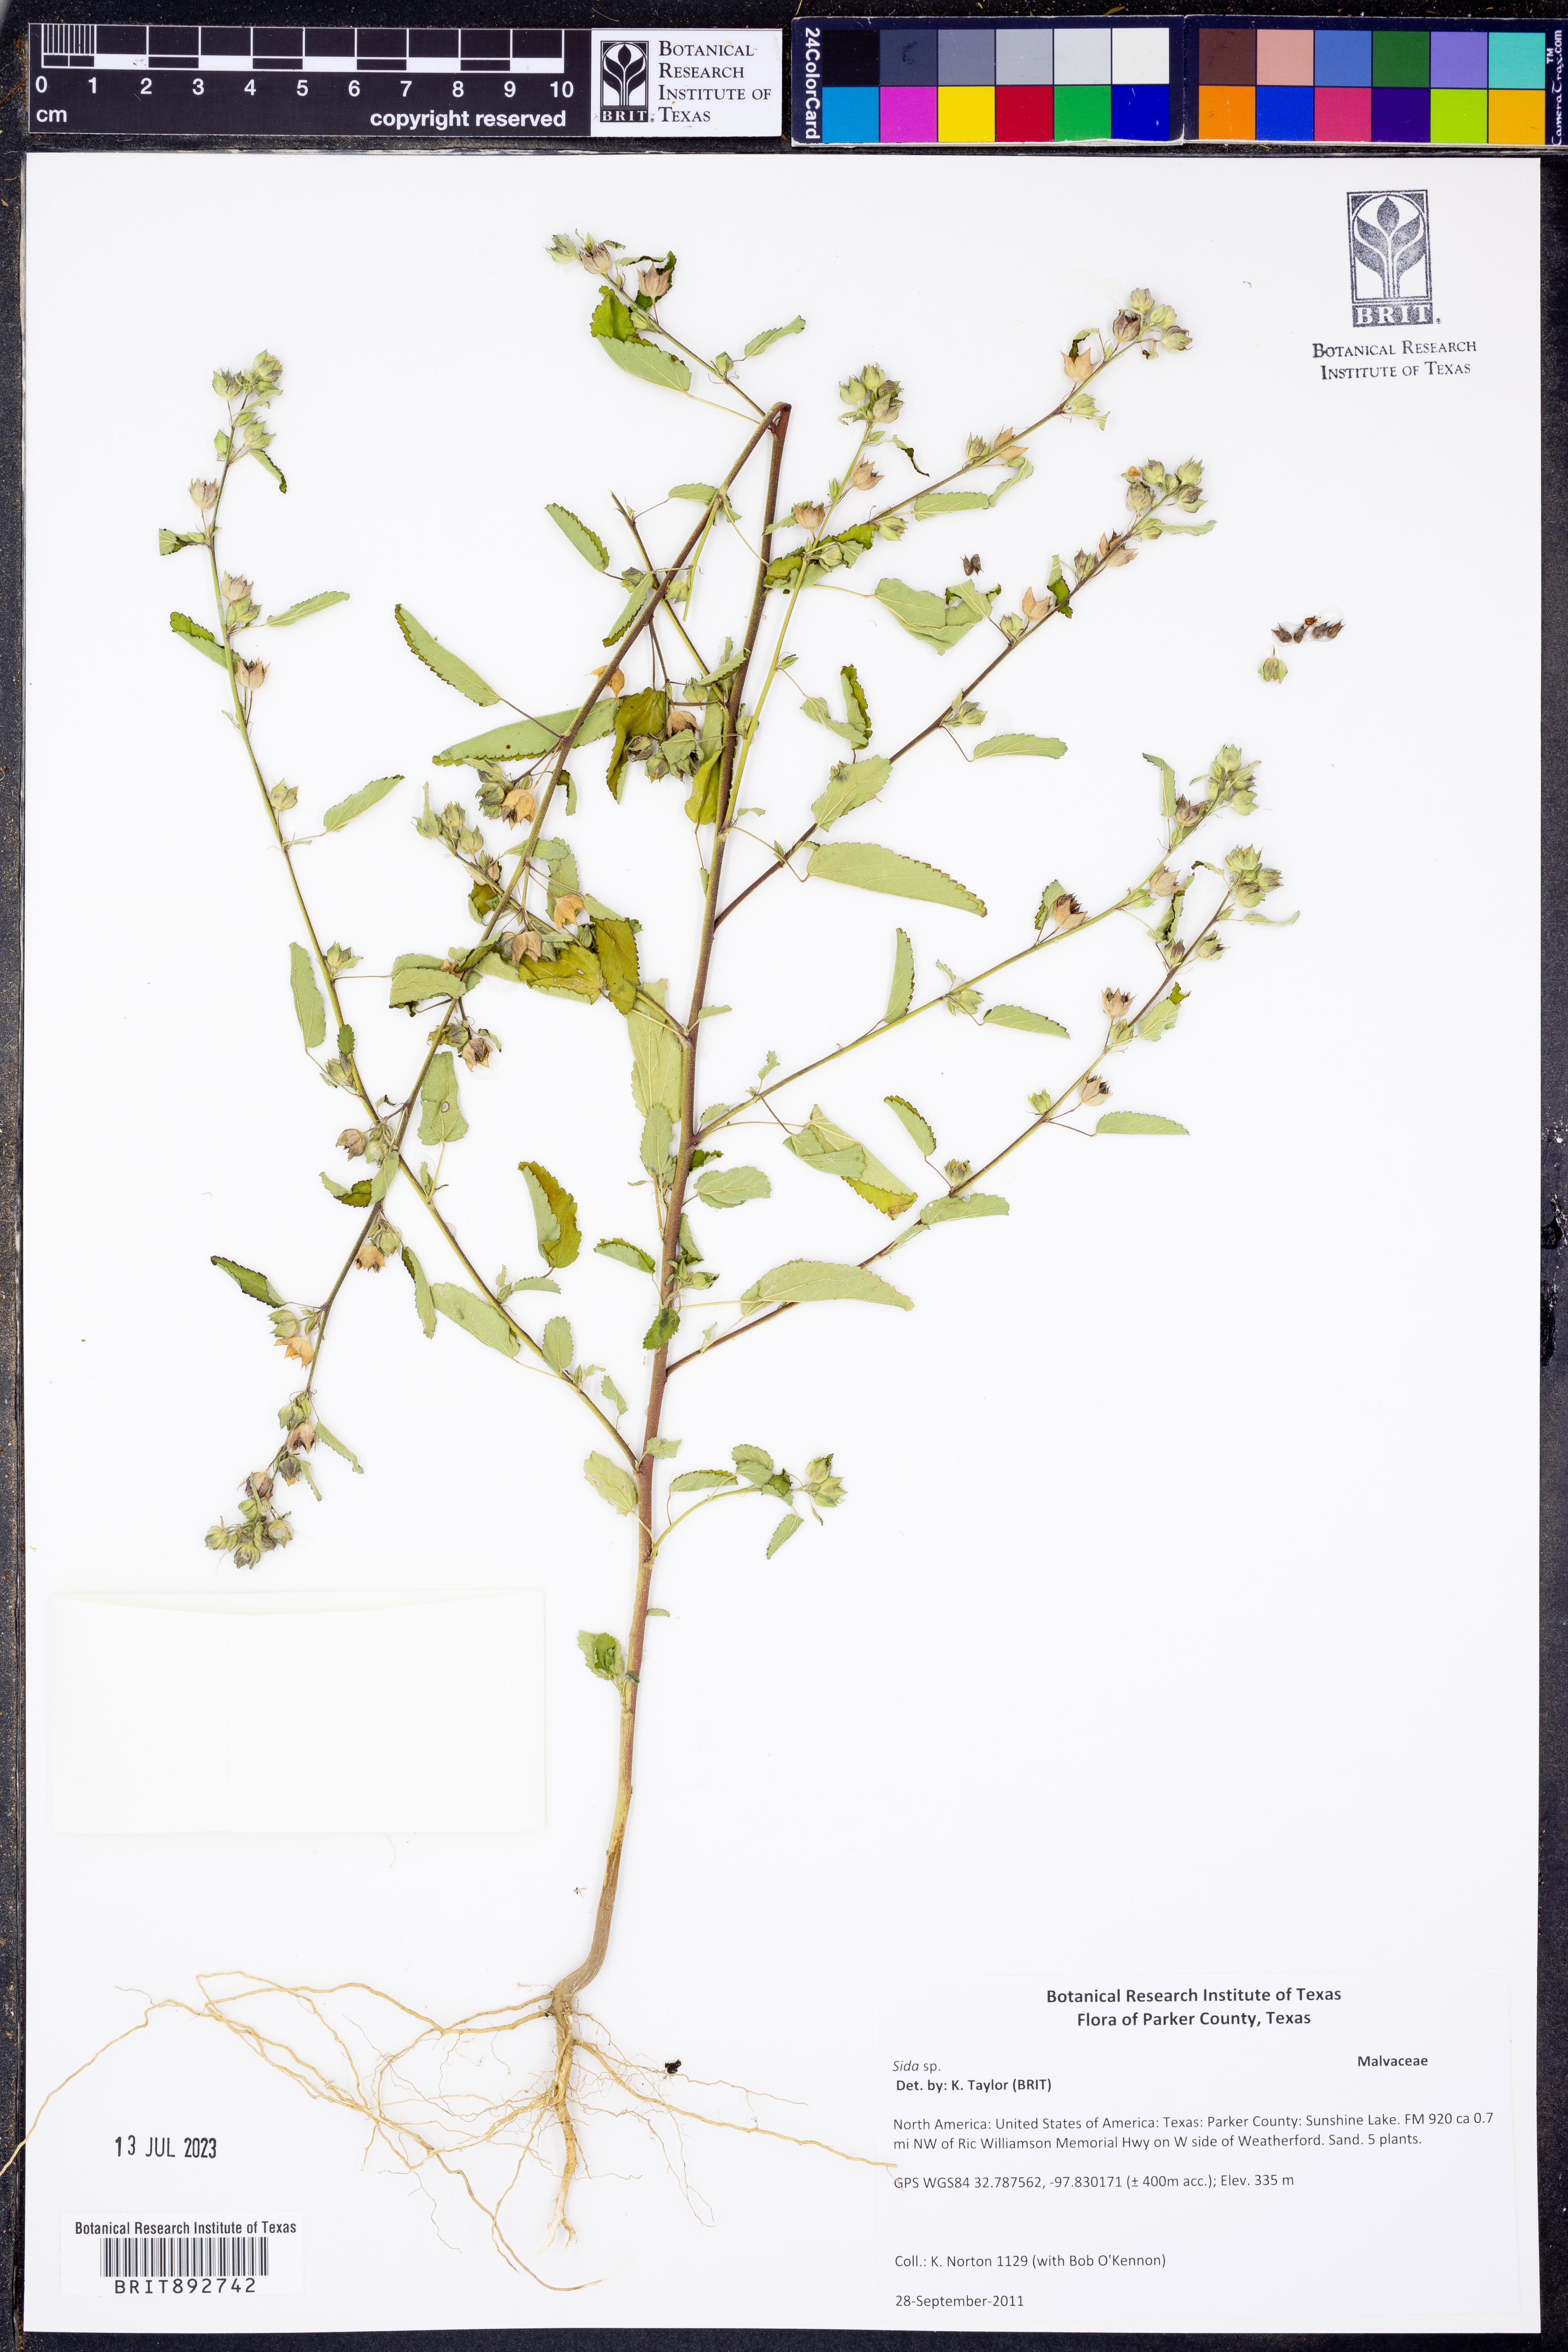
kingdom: Plantae
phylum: Tracheophyta
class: Magnoliopsida
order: Malvales
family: Malvaceae
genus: Sida
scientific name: Sida
